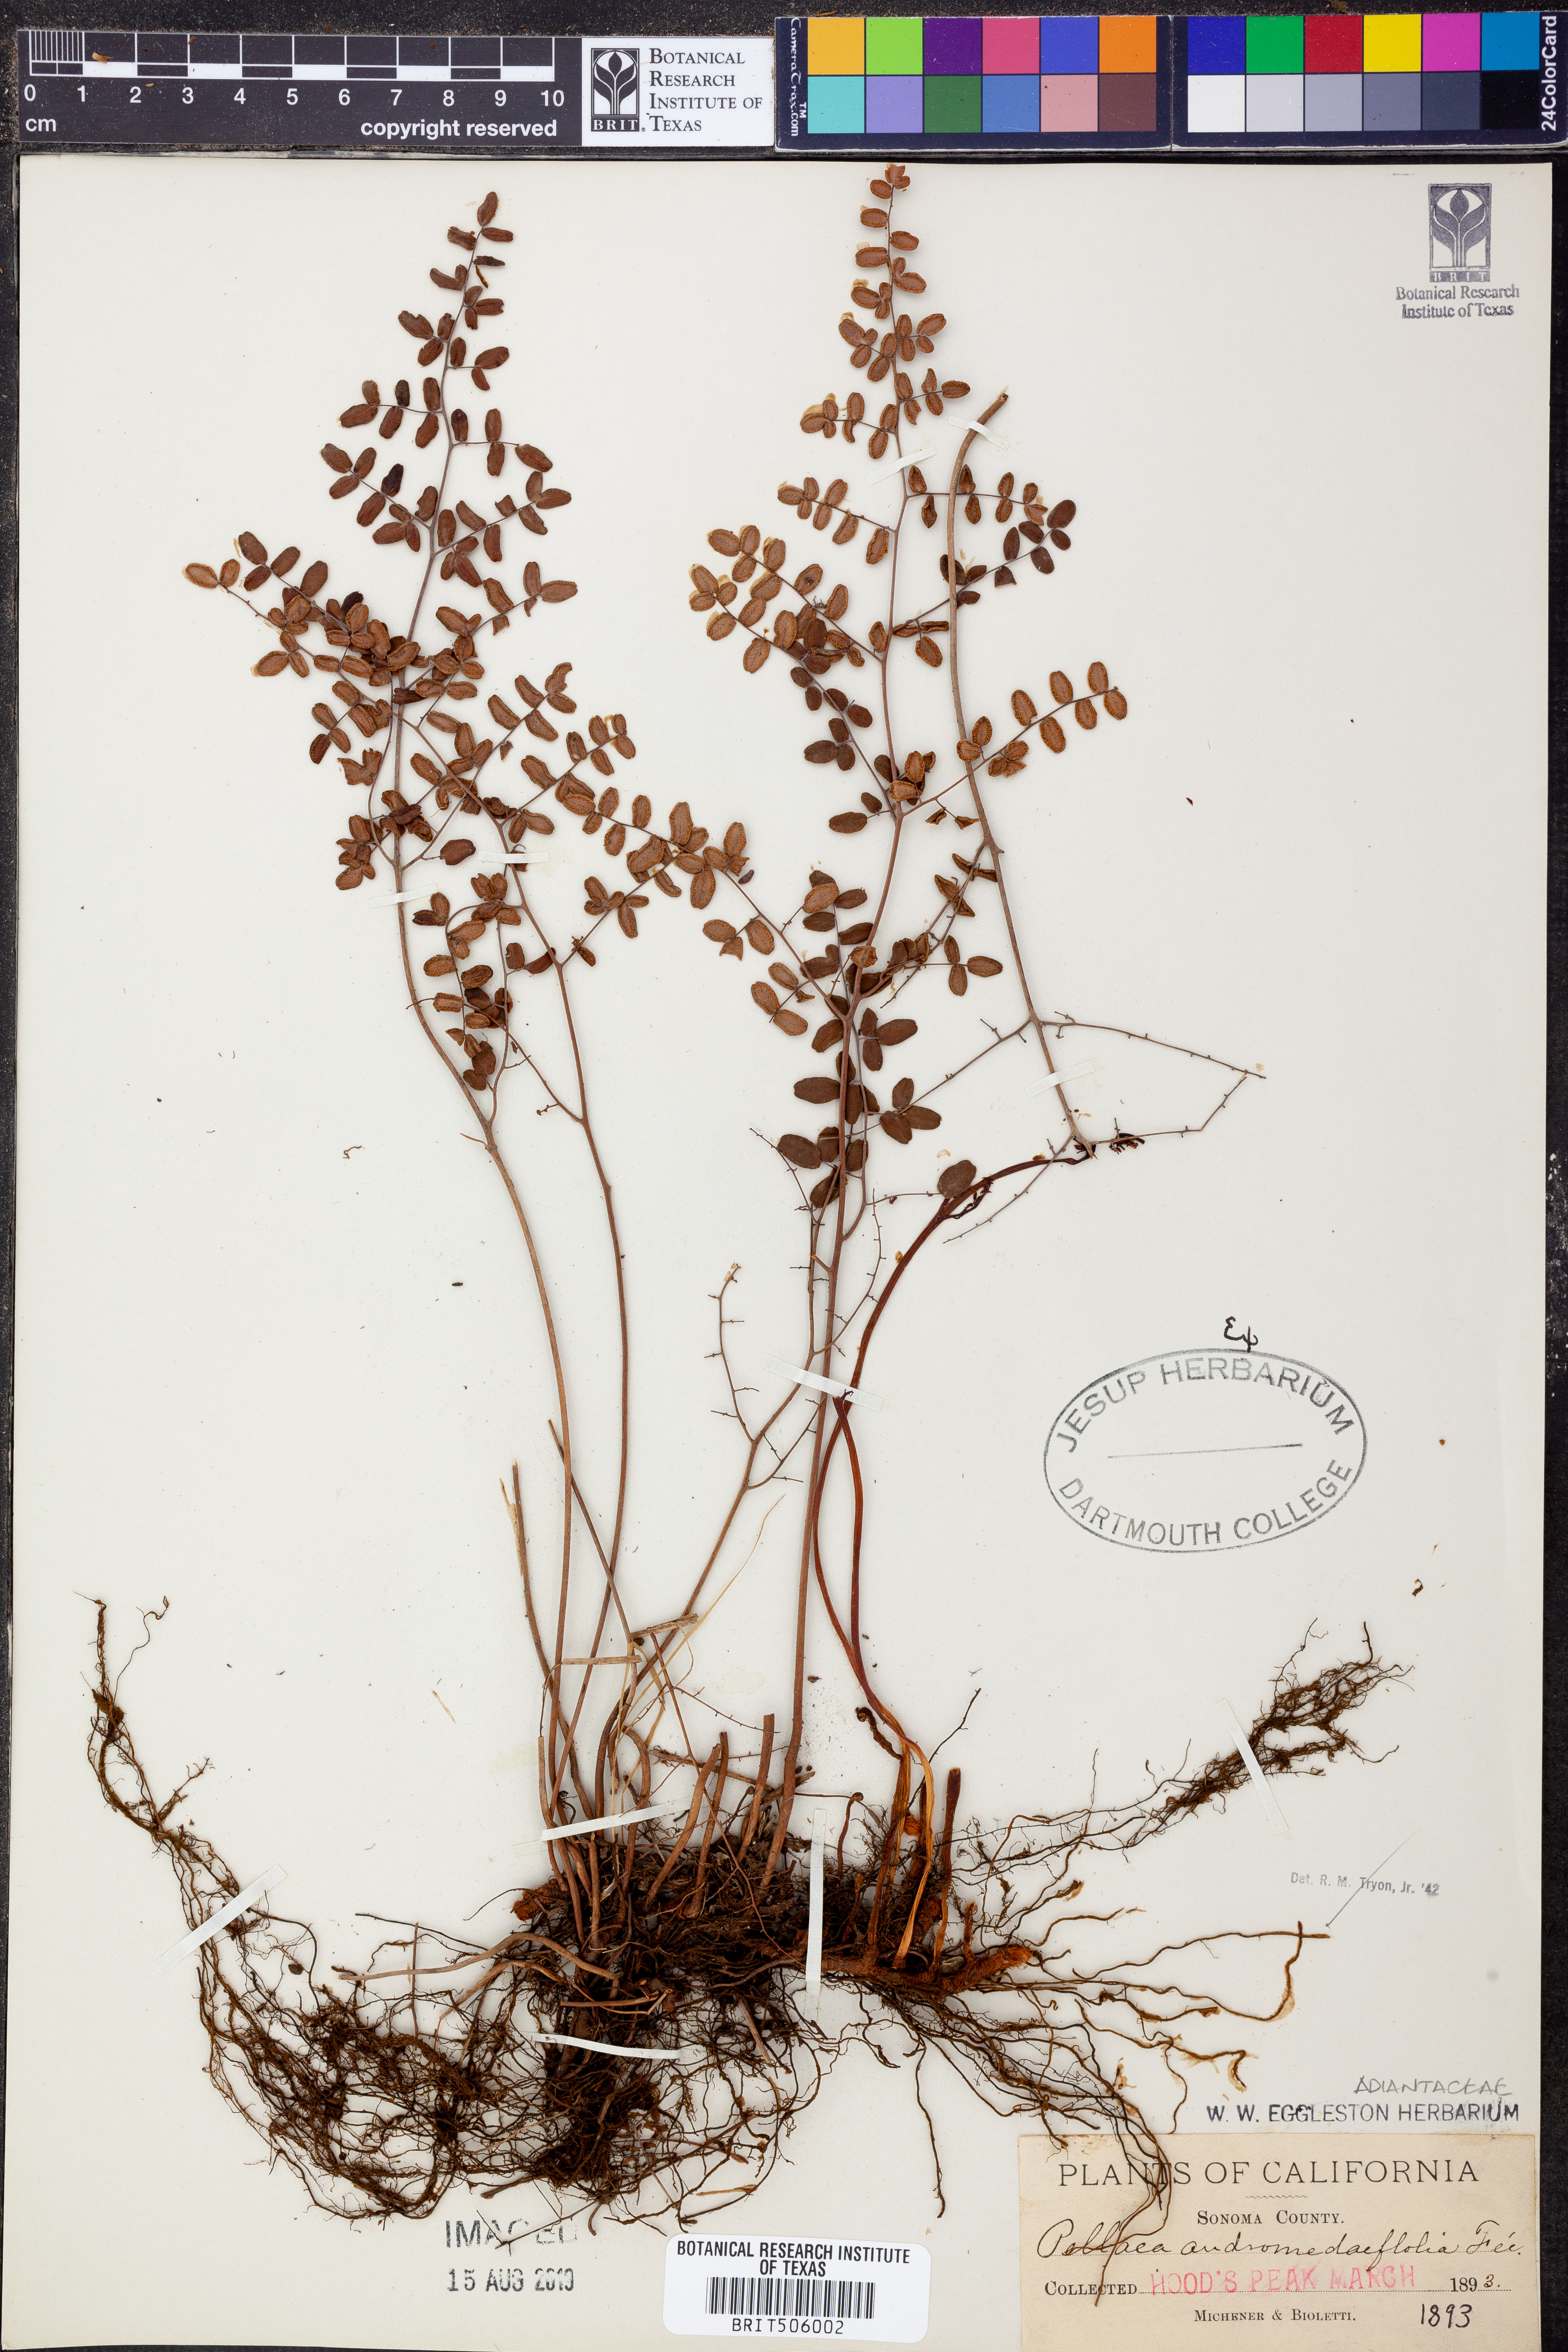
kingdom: Plantae
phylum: Tracheophyta
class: Polypodiopsida
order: Polypodiales
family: Pteridaceae
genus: Pellaea
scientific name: Pellaea andromedifolia
